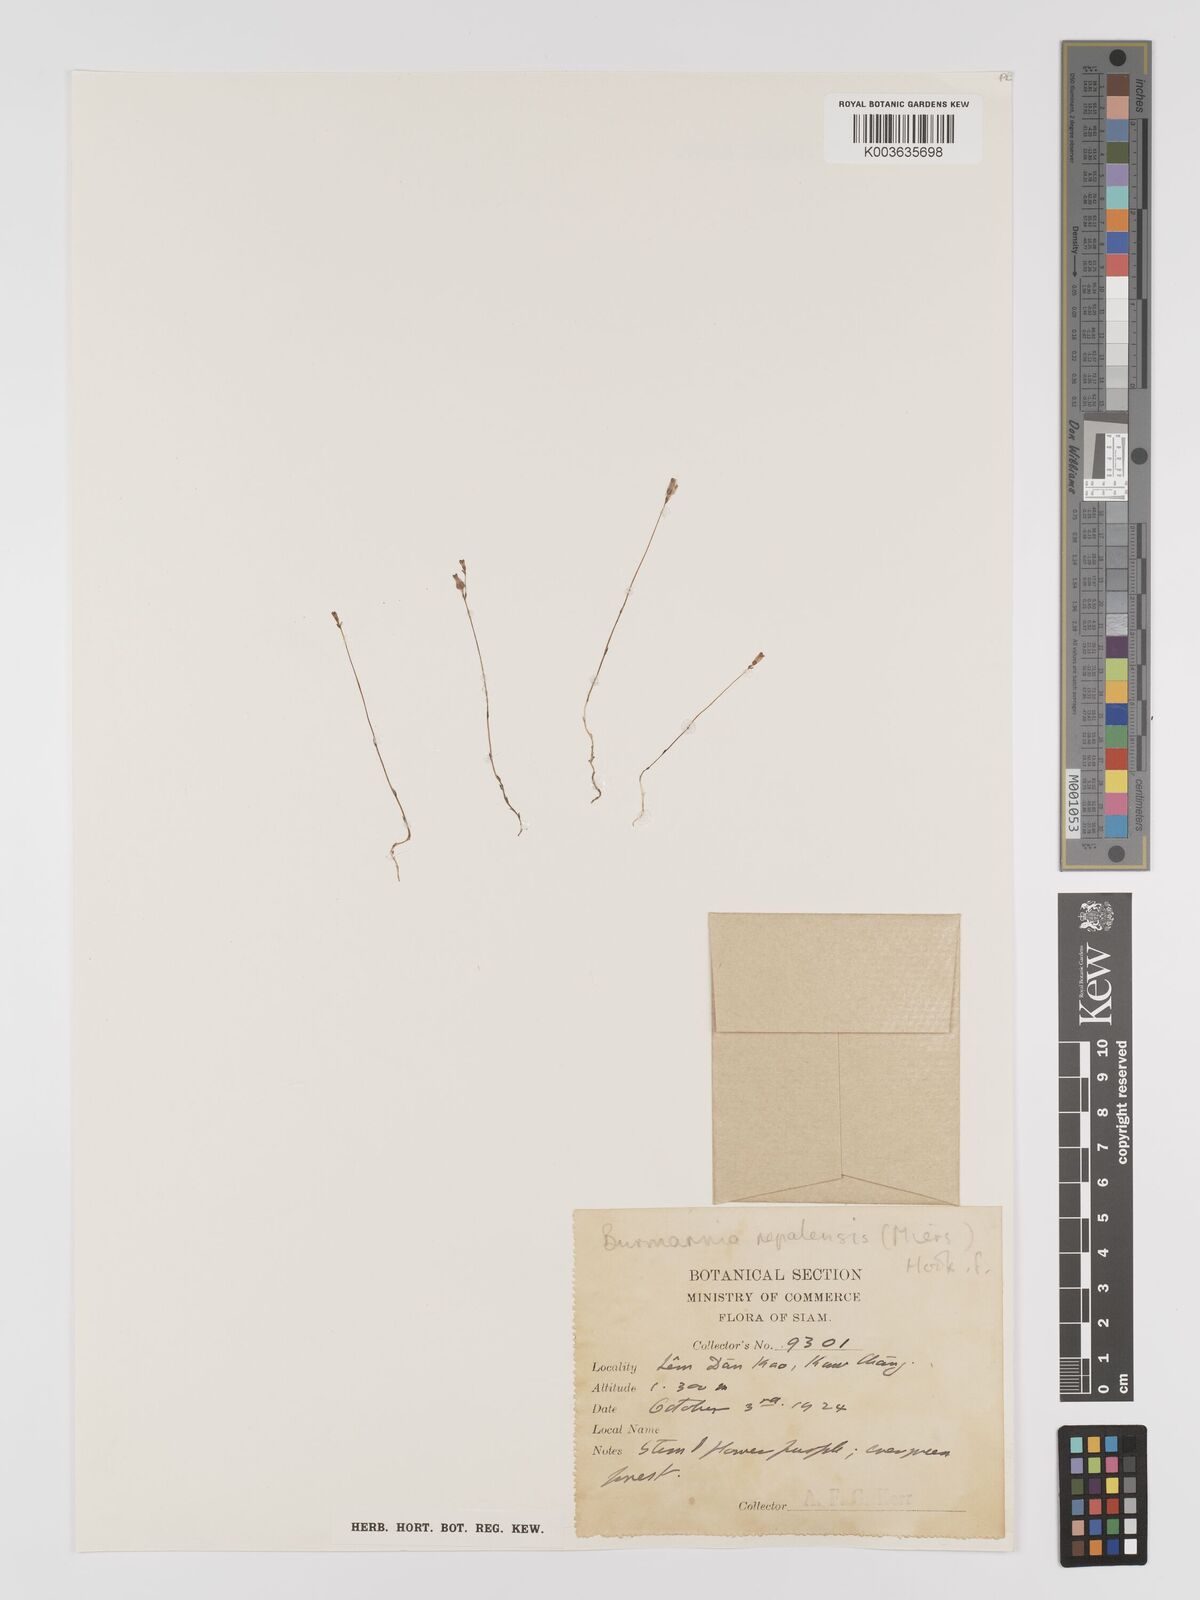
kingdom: Plantae
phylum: Tracheophyta
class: Liliopsida
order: Dioscoreales
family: Burmanniaceae
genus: Burmannia
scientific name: Burmannia nepalensis
